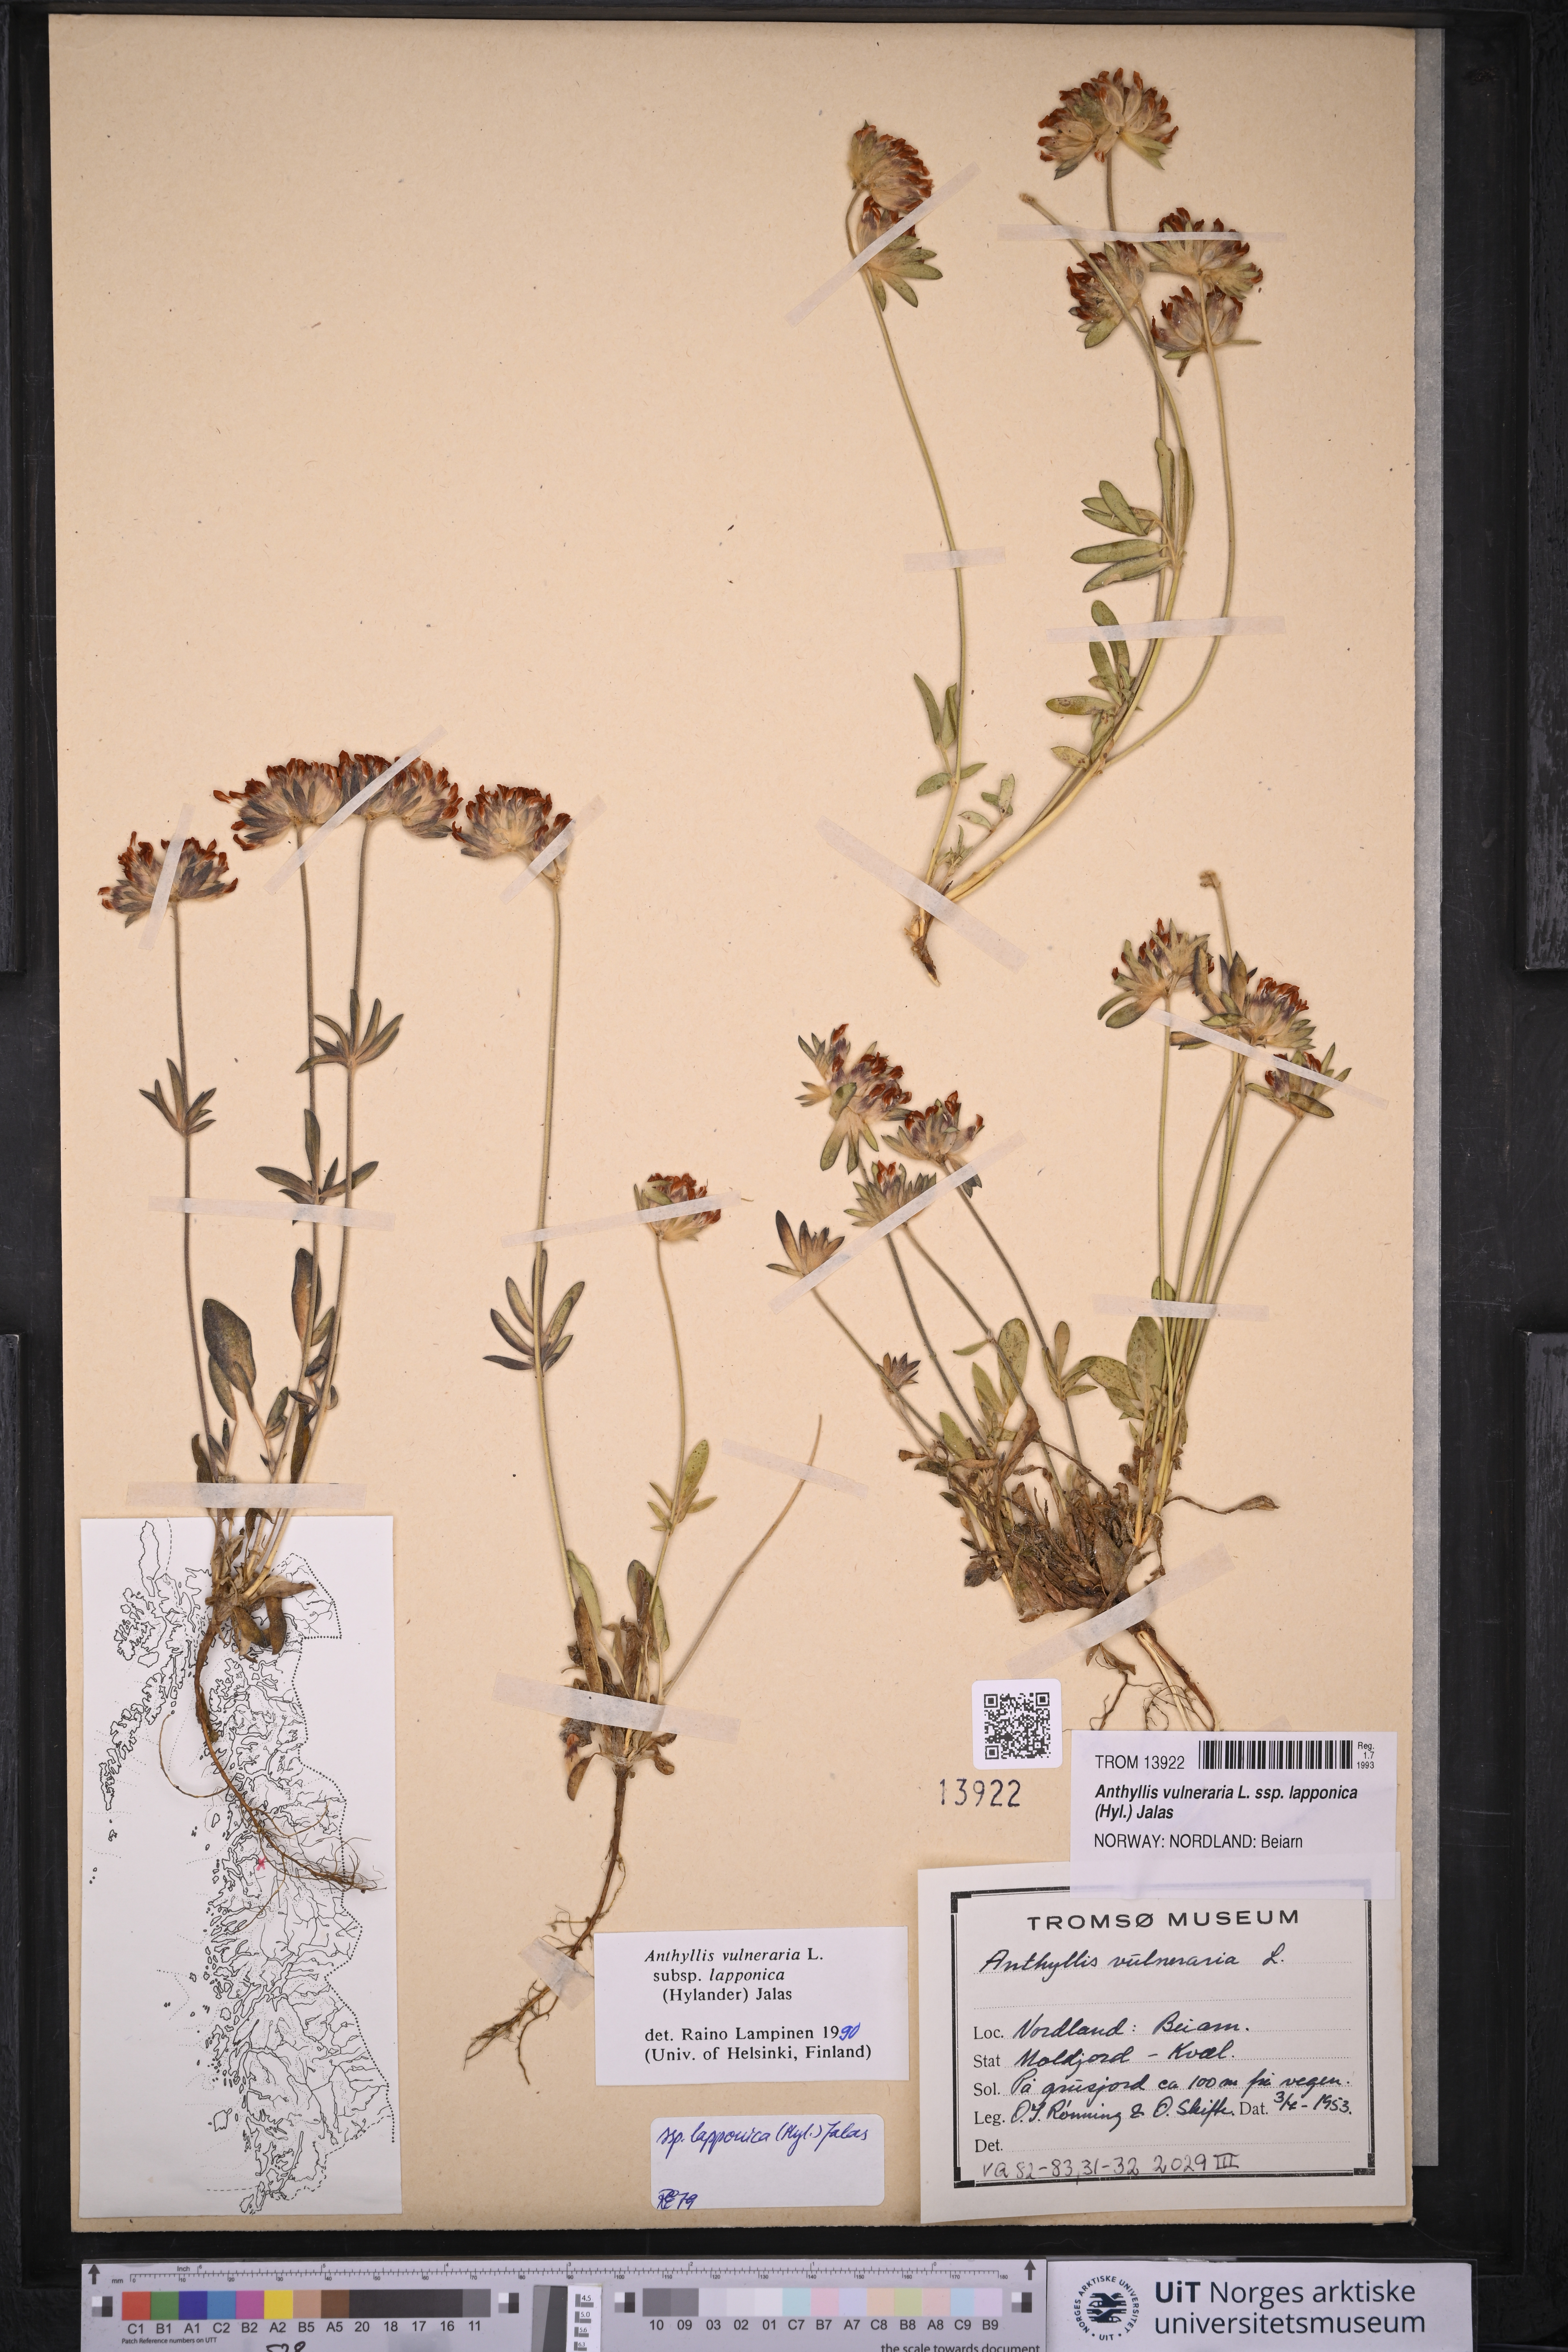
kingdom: Plantae
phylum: Tracheophyta
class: Magnoliopsida
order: Fabales
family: Fabaceae
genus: Anthyllis
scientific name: Anthyllis vulneraria
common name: Kidney vetch
